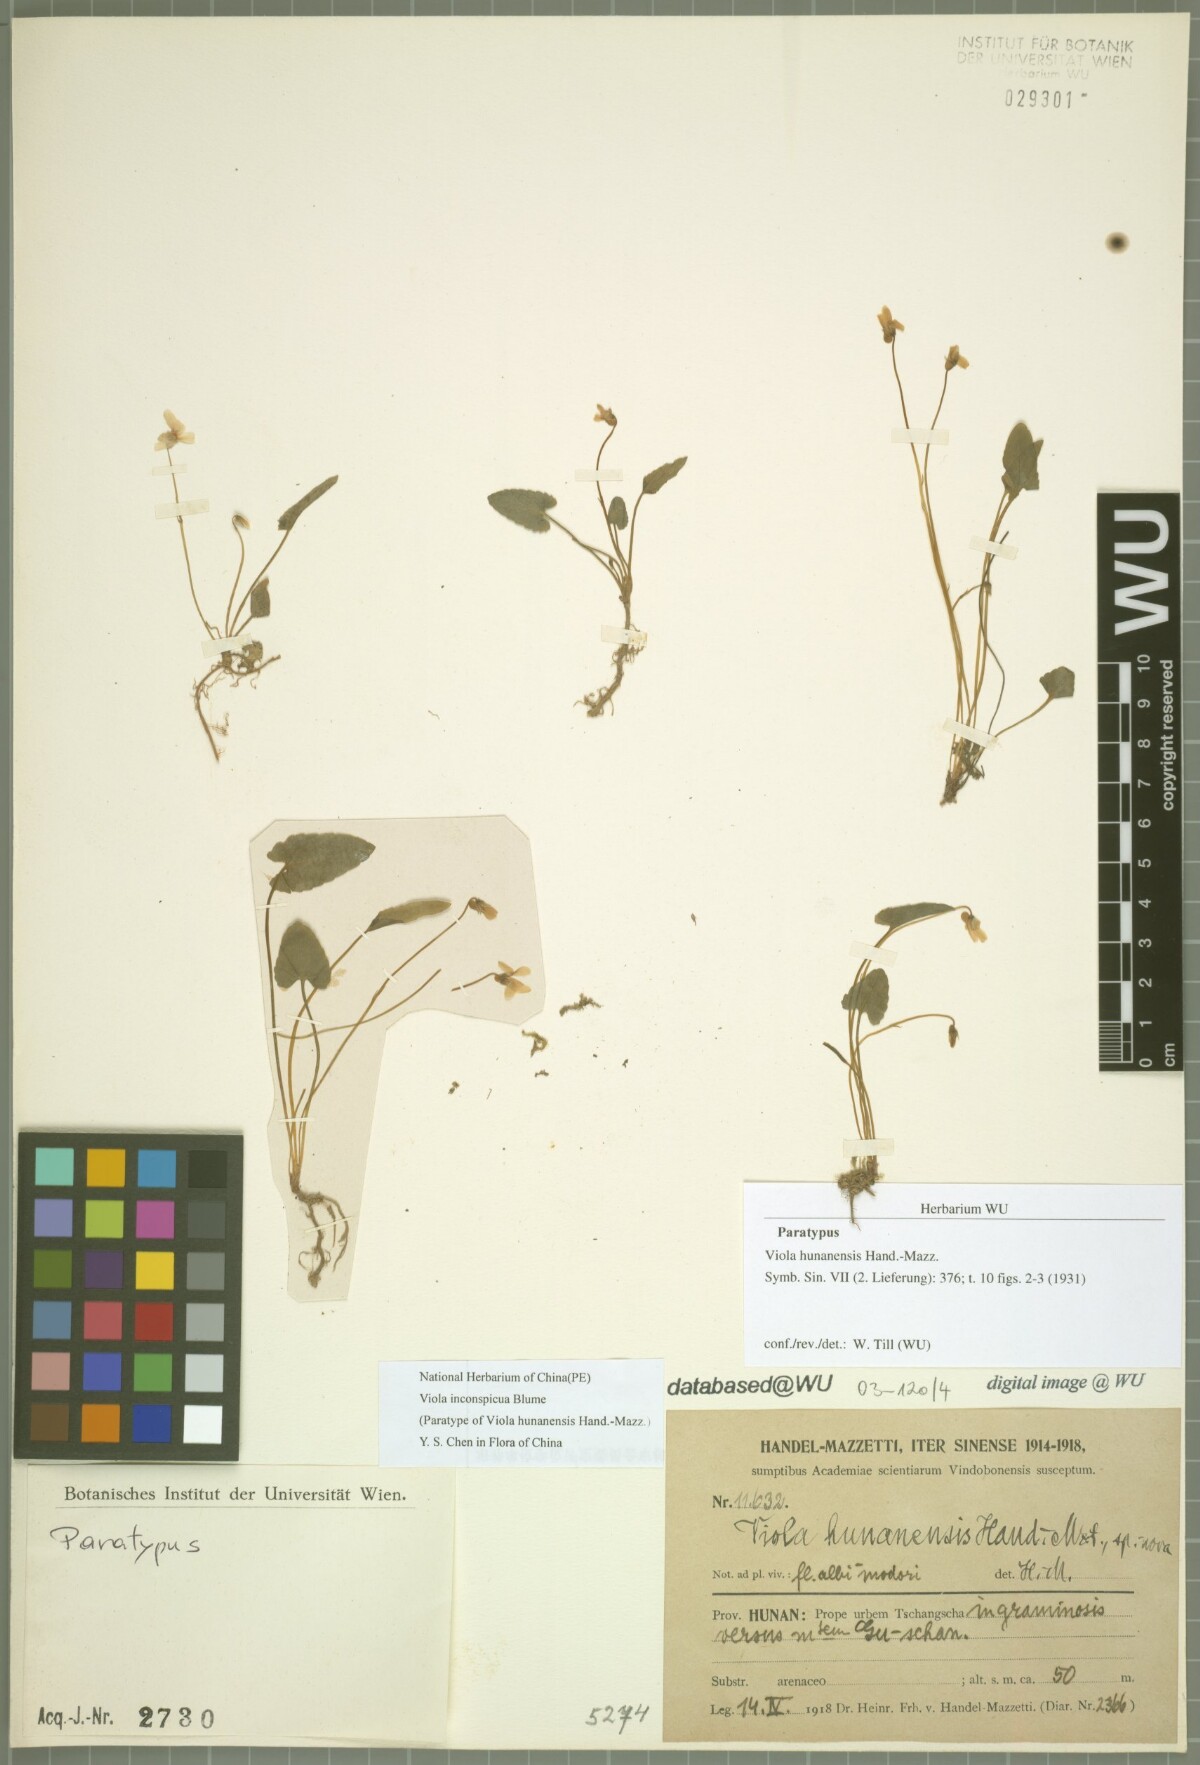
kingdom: Plantae
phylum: Tracheophyta
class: Magnoliopsida
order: Malpighiales
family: Violaceae
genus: Viola
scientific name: Viola inconspicua
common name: Long sepal violet
